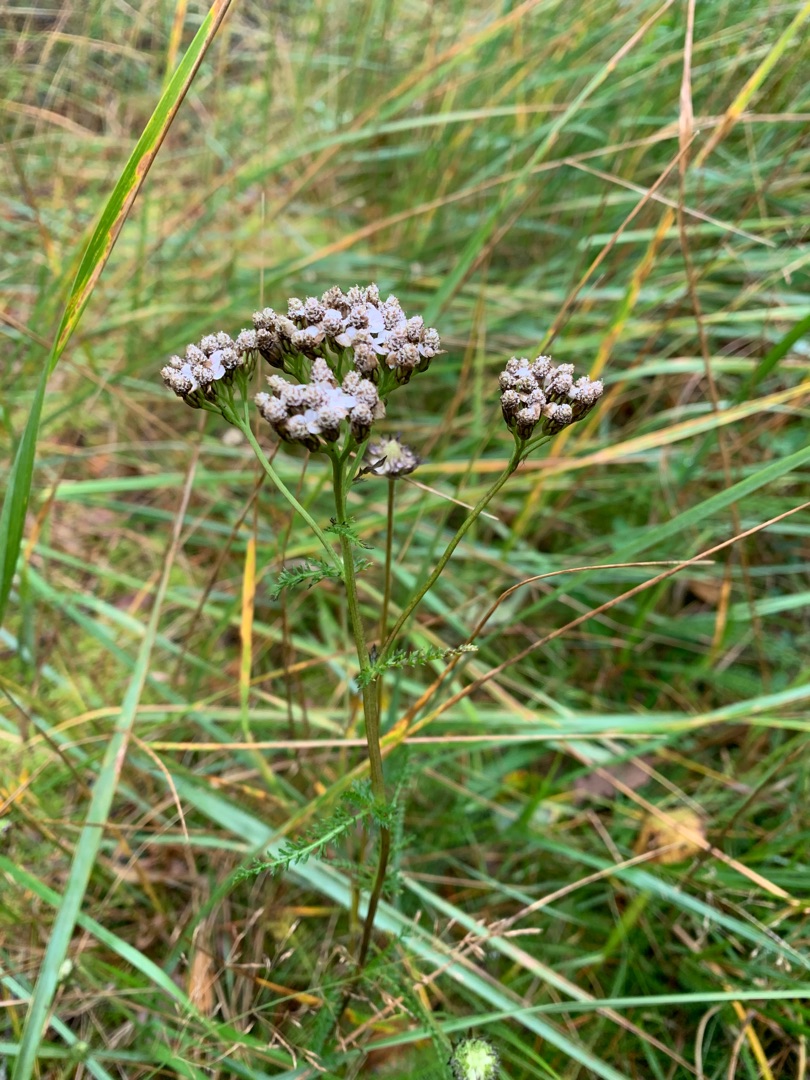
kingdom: Plantae
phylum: Tracheophyta
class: Magnoliopsida
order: Asterales
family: Asteraceae
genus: Achillea
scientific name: Achillea millefolium
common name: Almindelig røllike
